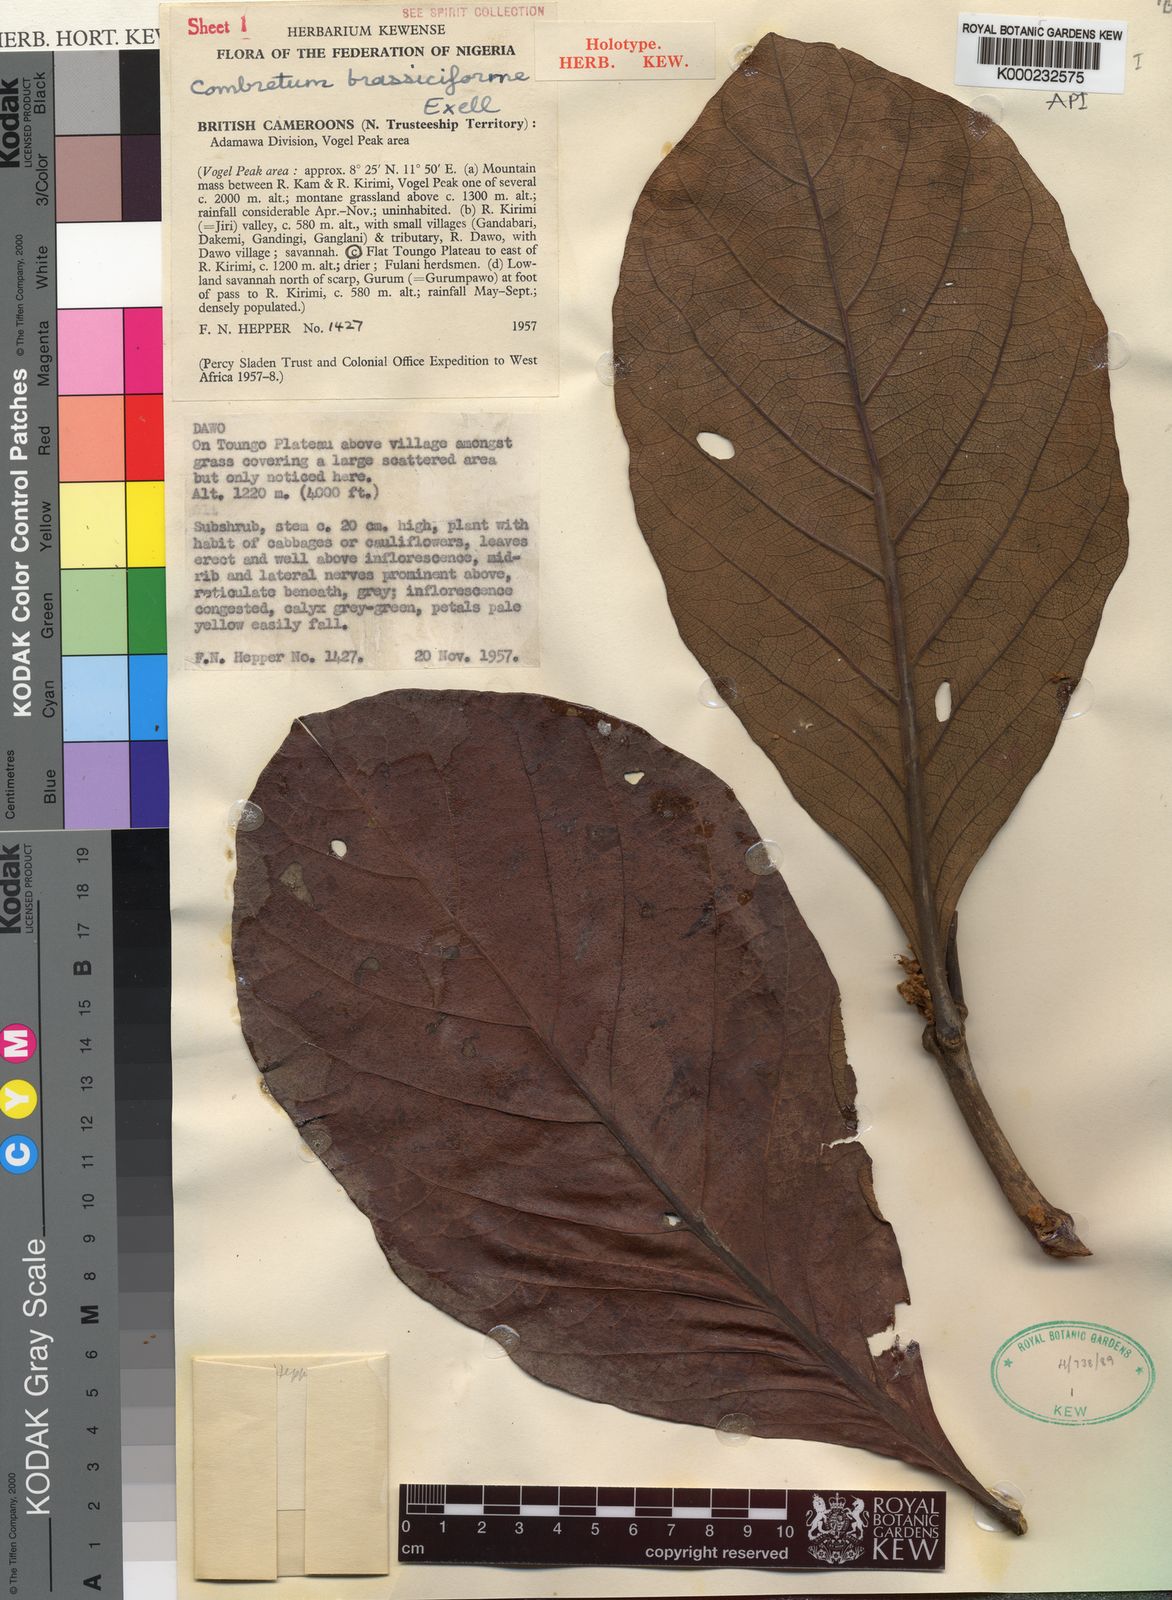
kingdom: Plantae
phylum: Tracheophyta
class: Magnoliopsida
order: Myrtales
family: Combretaceae
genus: Combretum
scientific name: Combretum glutinosum
